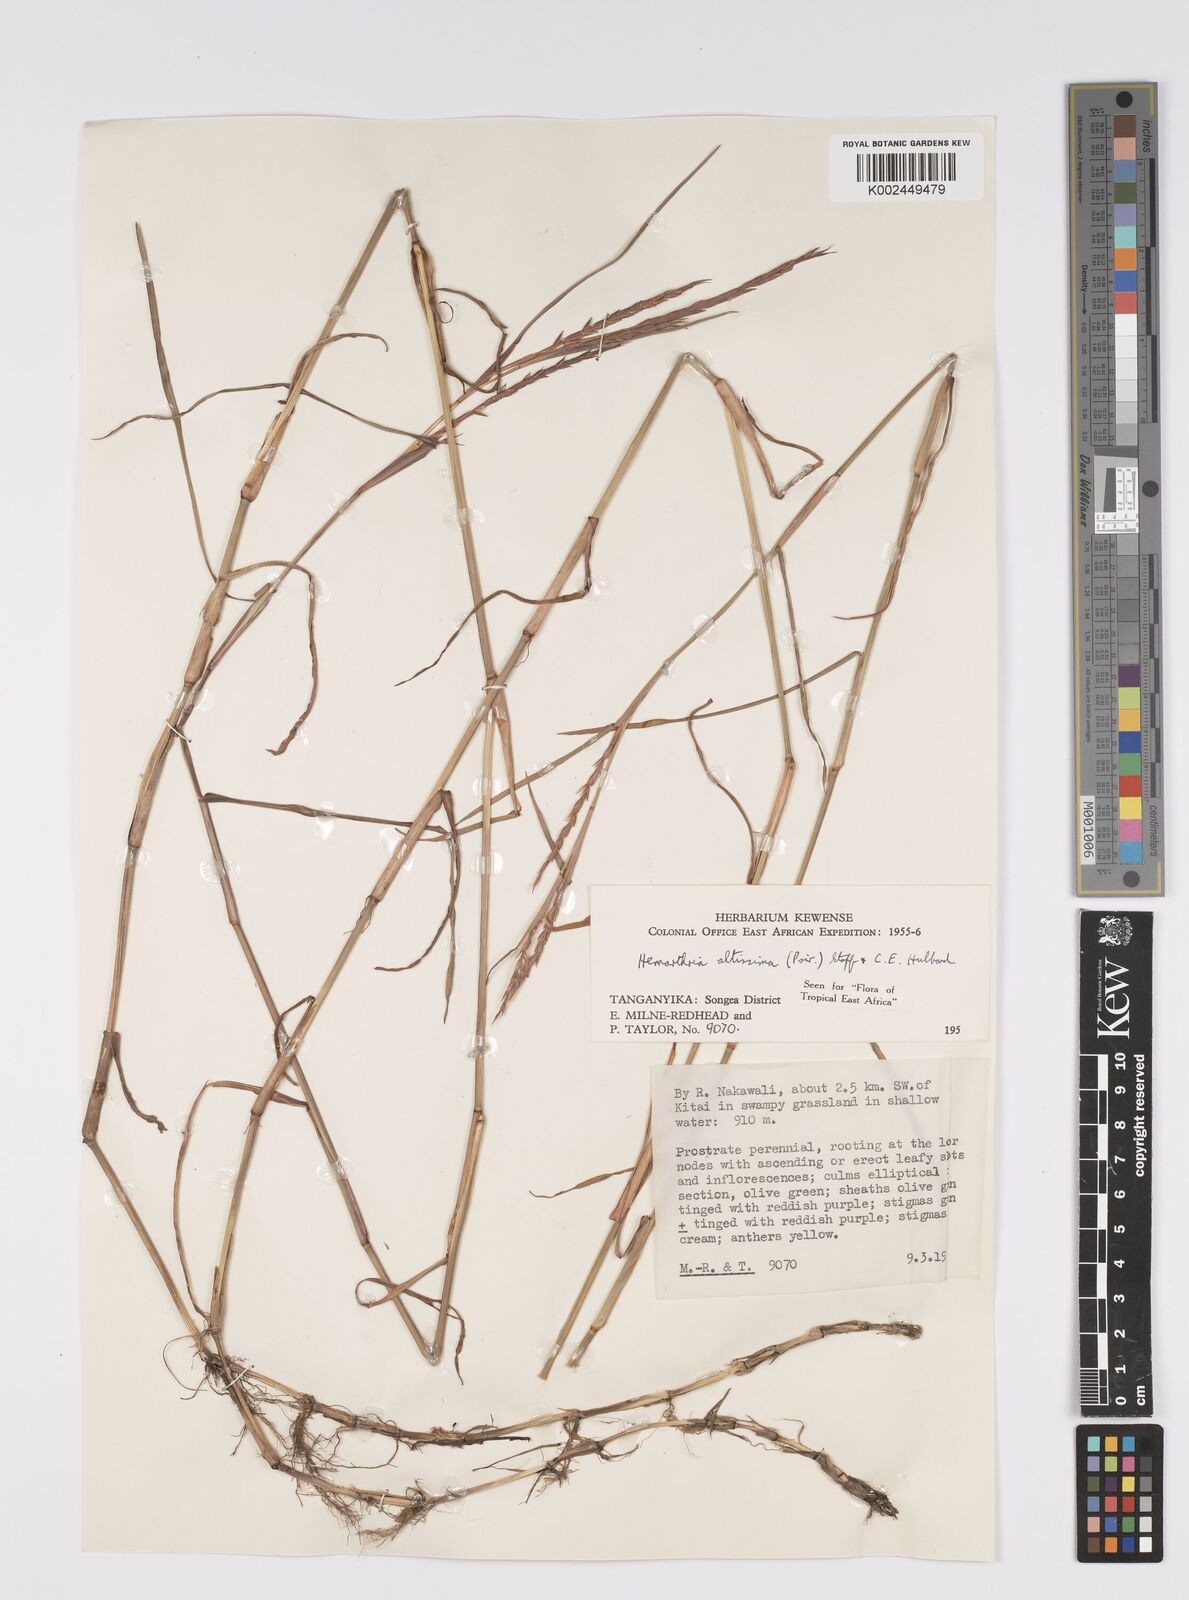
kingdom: Plantae
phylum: Tracheophyta
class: Liliopsida
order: Poales
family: Poaceae
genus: Hemarthria
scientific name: Hemarthria altissima
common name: African jointgrass
